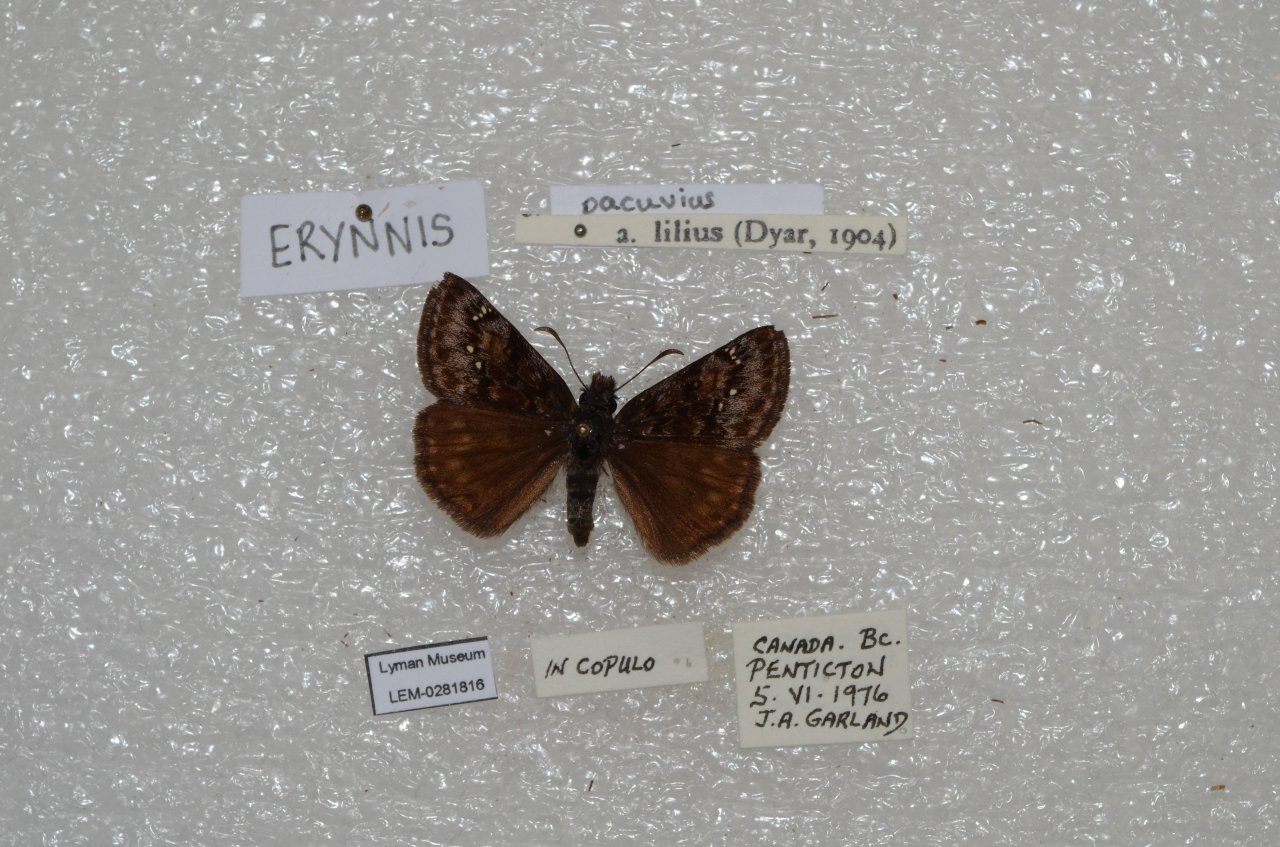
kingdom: Animalia
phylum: Arthropoda
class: Insecta
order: Lepidoptera
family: Hesperiidae
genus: Erynnis
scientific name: Erynnis pacuvius
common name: Pacuvius Duskywing
